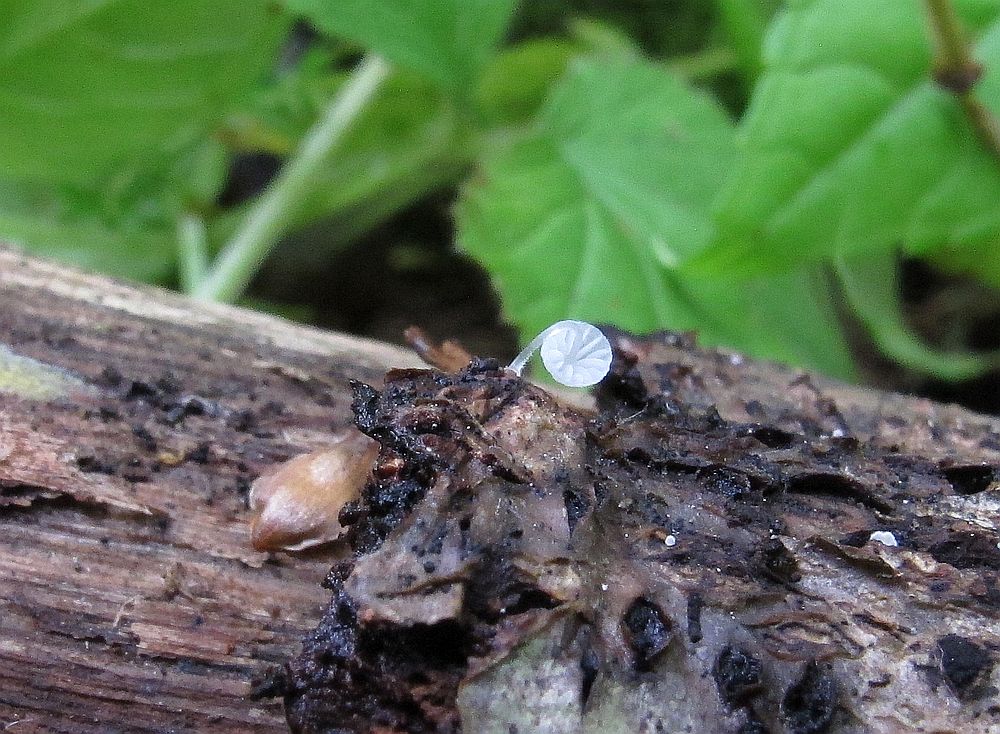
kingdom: Fungi
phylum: Basidiomycota
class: Agaricomycetes
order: Agaricales
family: Mycenaceae
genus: Mycena
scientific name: Mycena tenerrima
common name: pudret huesvamp
